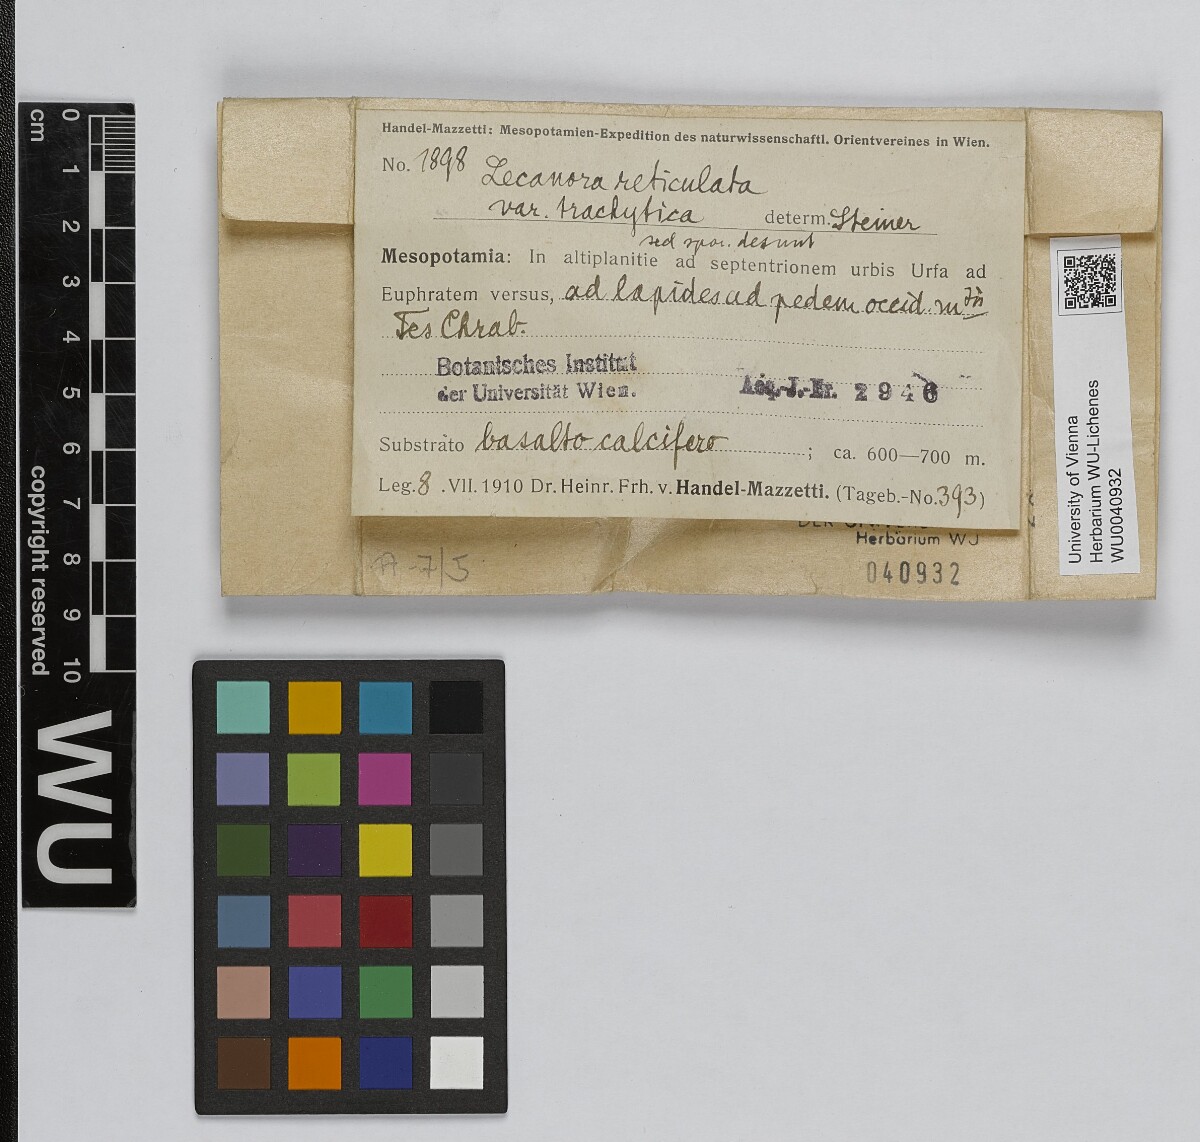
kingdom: Fungi
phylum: Ascomycota
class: Lecanoromycetes
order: Lecanorales
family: Lecanoraceae
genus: Lecanora
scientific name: Lecanora reticulata
